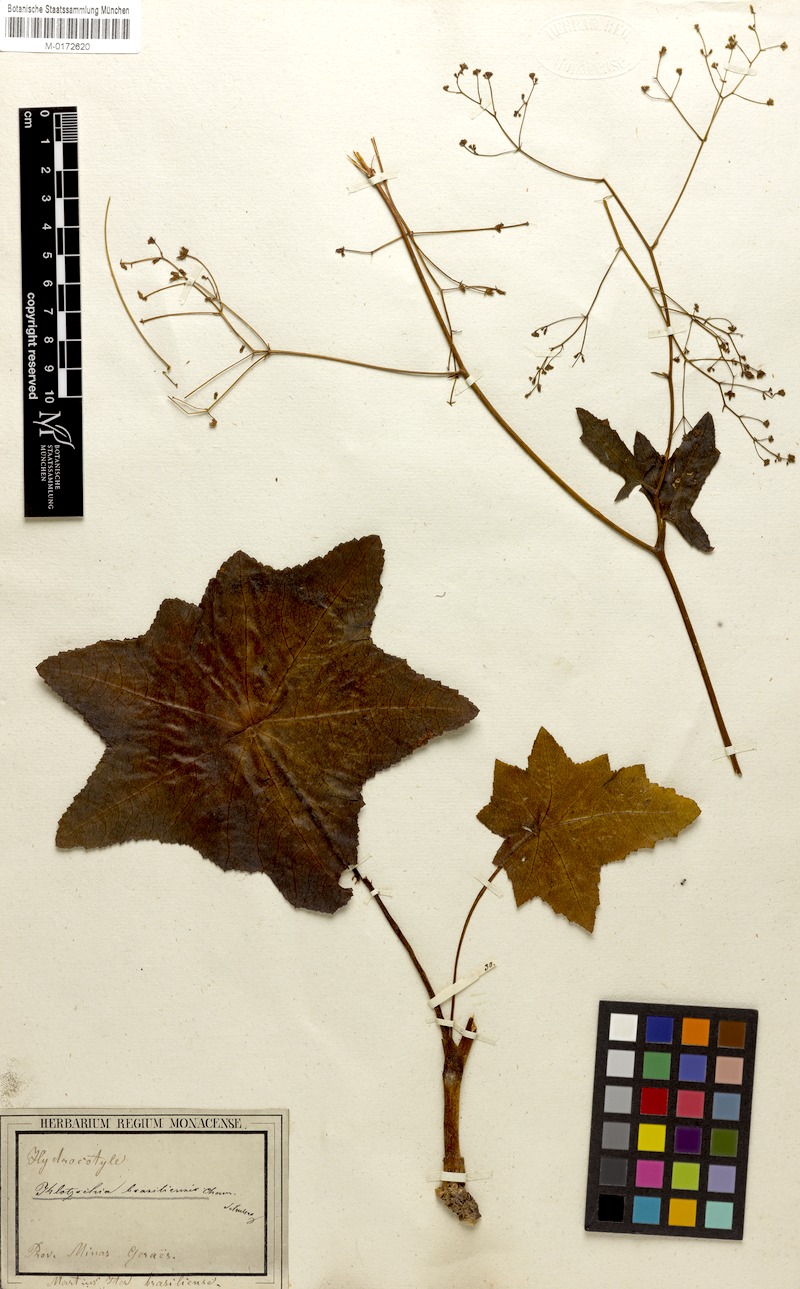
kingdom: Plantae
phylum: Tracheophyta
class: Magnoliopsida
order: Apiales
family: Apiaceae
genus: Klotzschia
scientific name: Klotzschia brasiliensis
